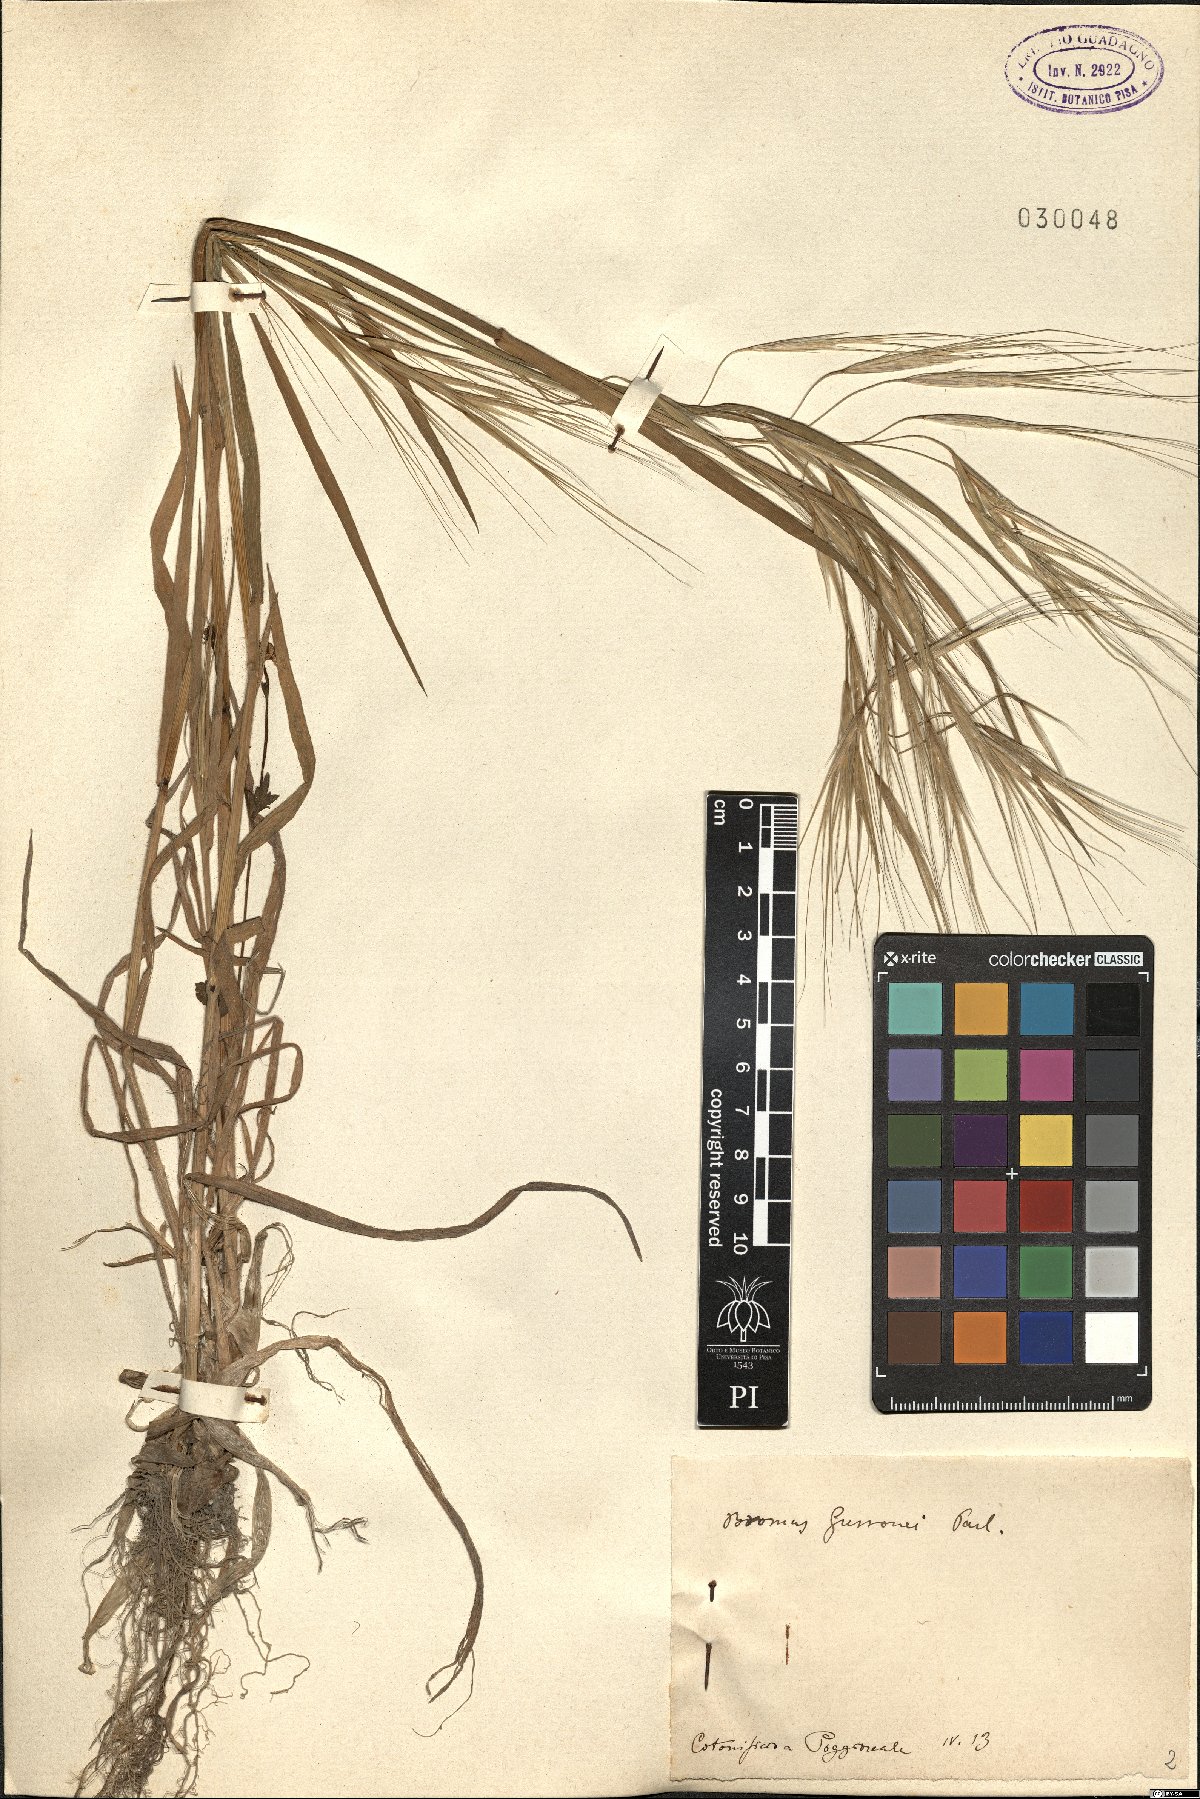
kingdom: Plantae
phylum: Tracheophyta
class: Liliopsida
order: Poales
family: Poaceae
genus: Bromus
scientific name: Bromus diandrus
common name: Ripgut brome
